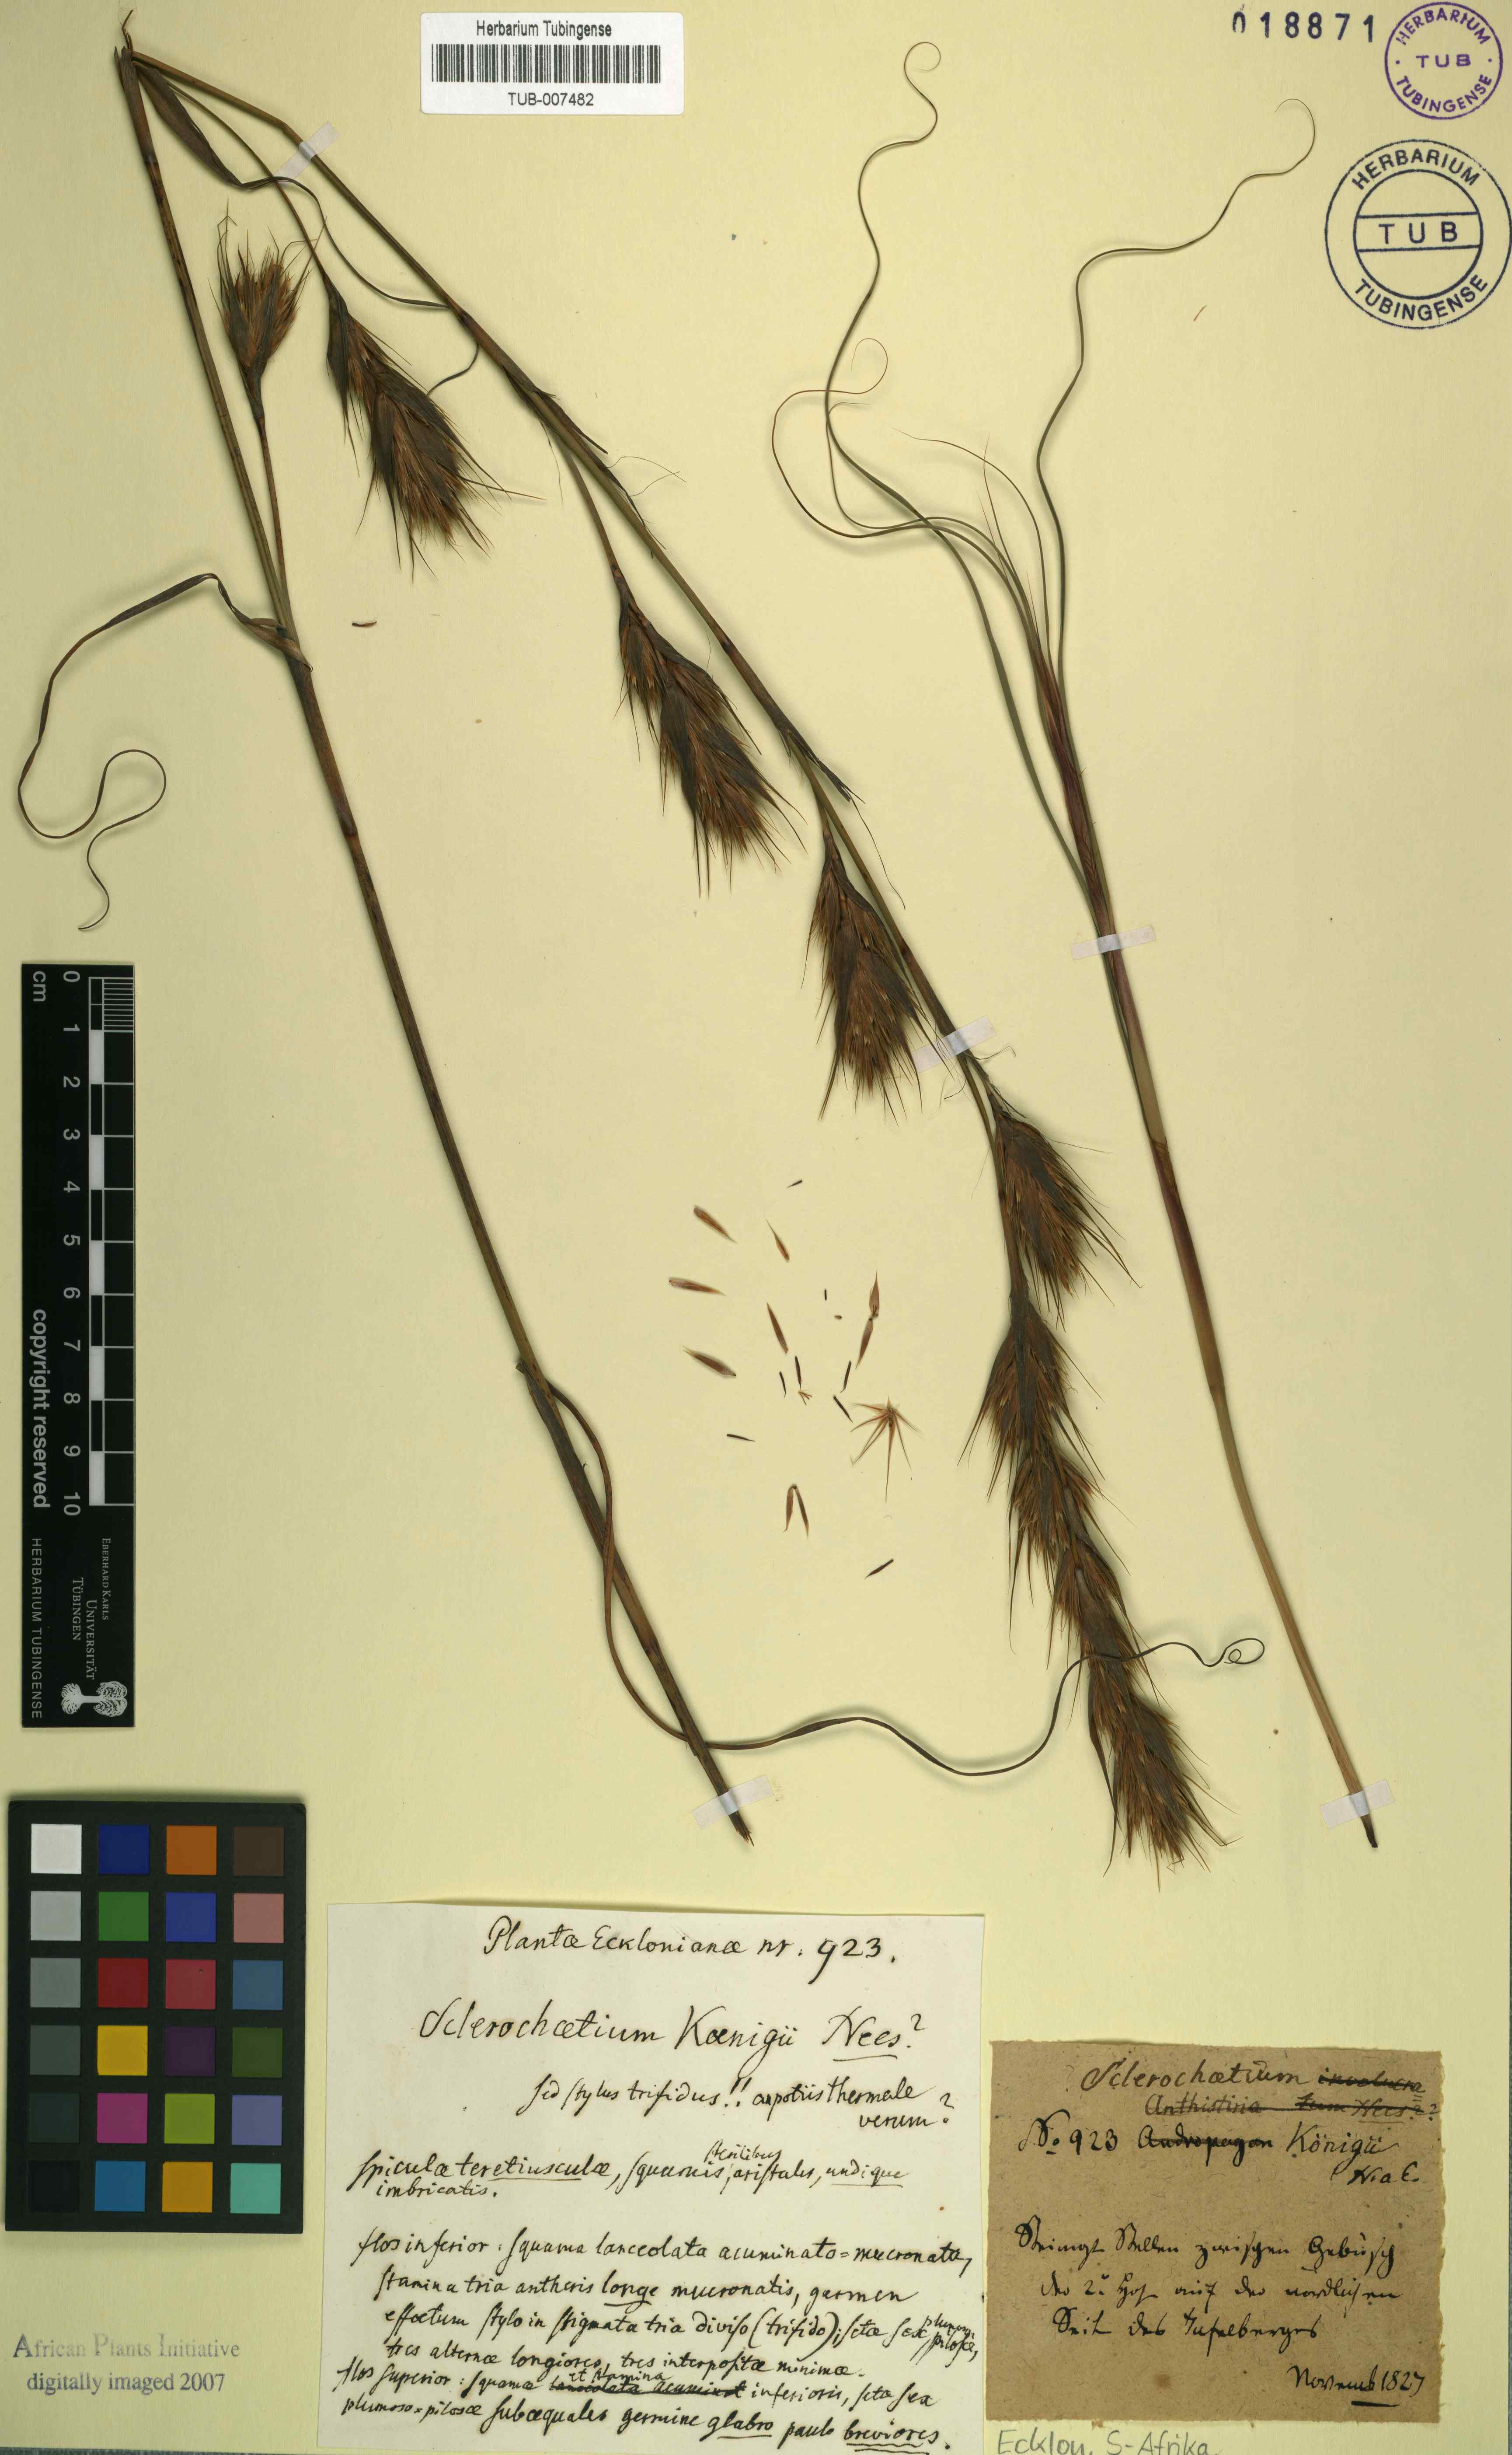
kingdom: Plantae
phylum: Tracheophyta
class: Liliopsida
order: Poales
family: Cyperaceae
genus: Tetraria
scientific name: Tetraria bromoides
